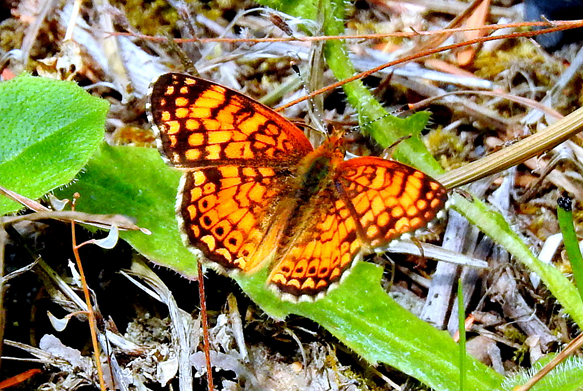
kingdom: Animalia
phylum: Arthropoda
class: Insecta
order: Lepidoptera
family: Nymphalidae
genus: Eresia
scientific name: Eresia aveyrona
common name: Mylitta Crescent
